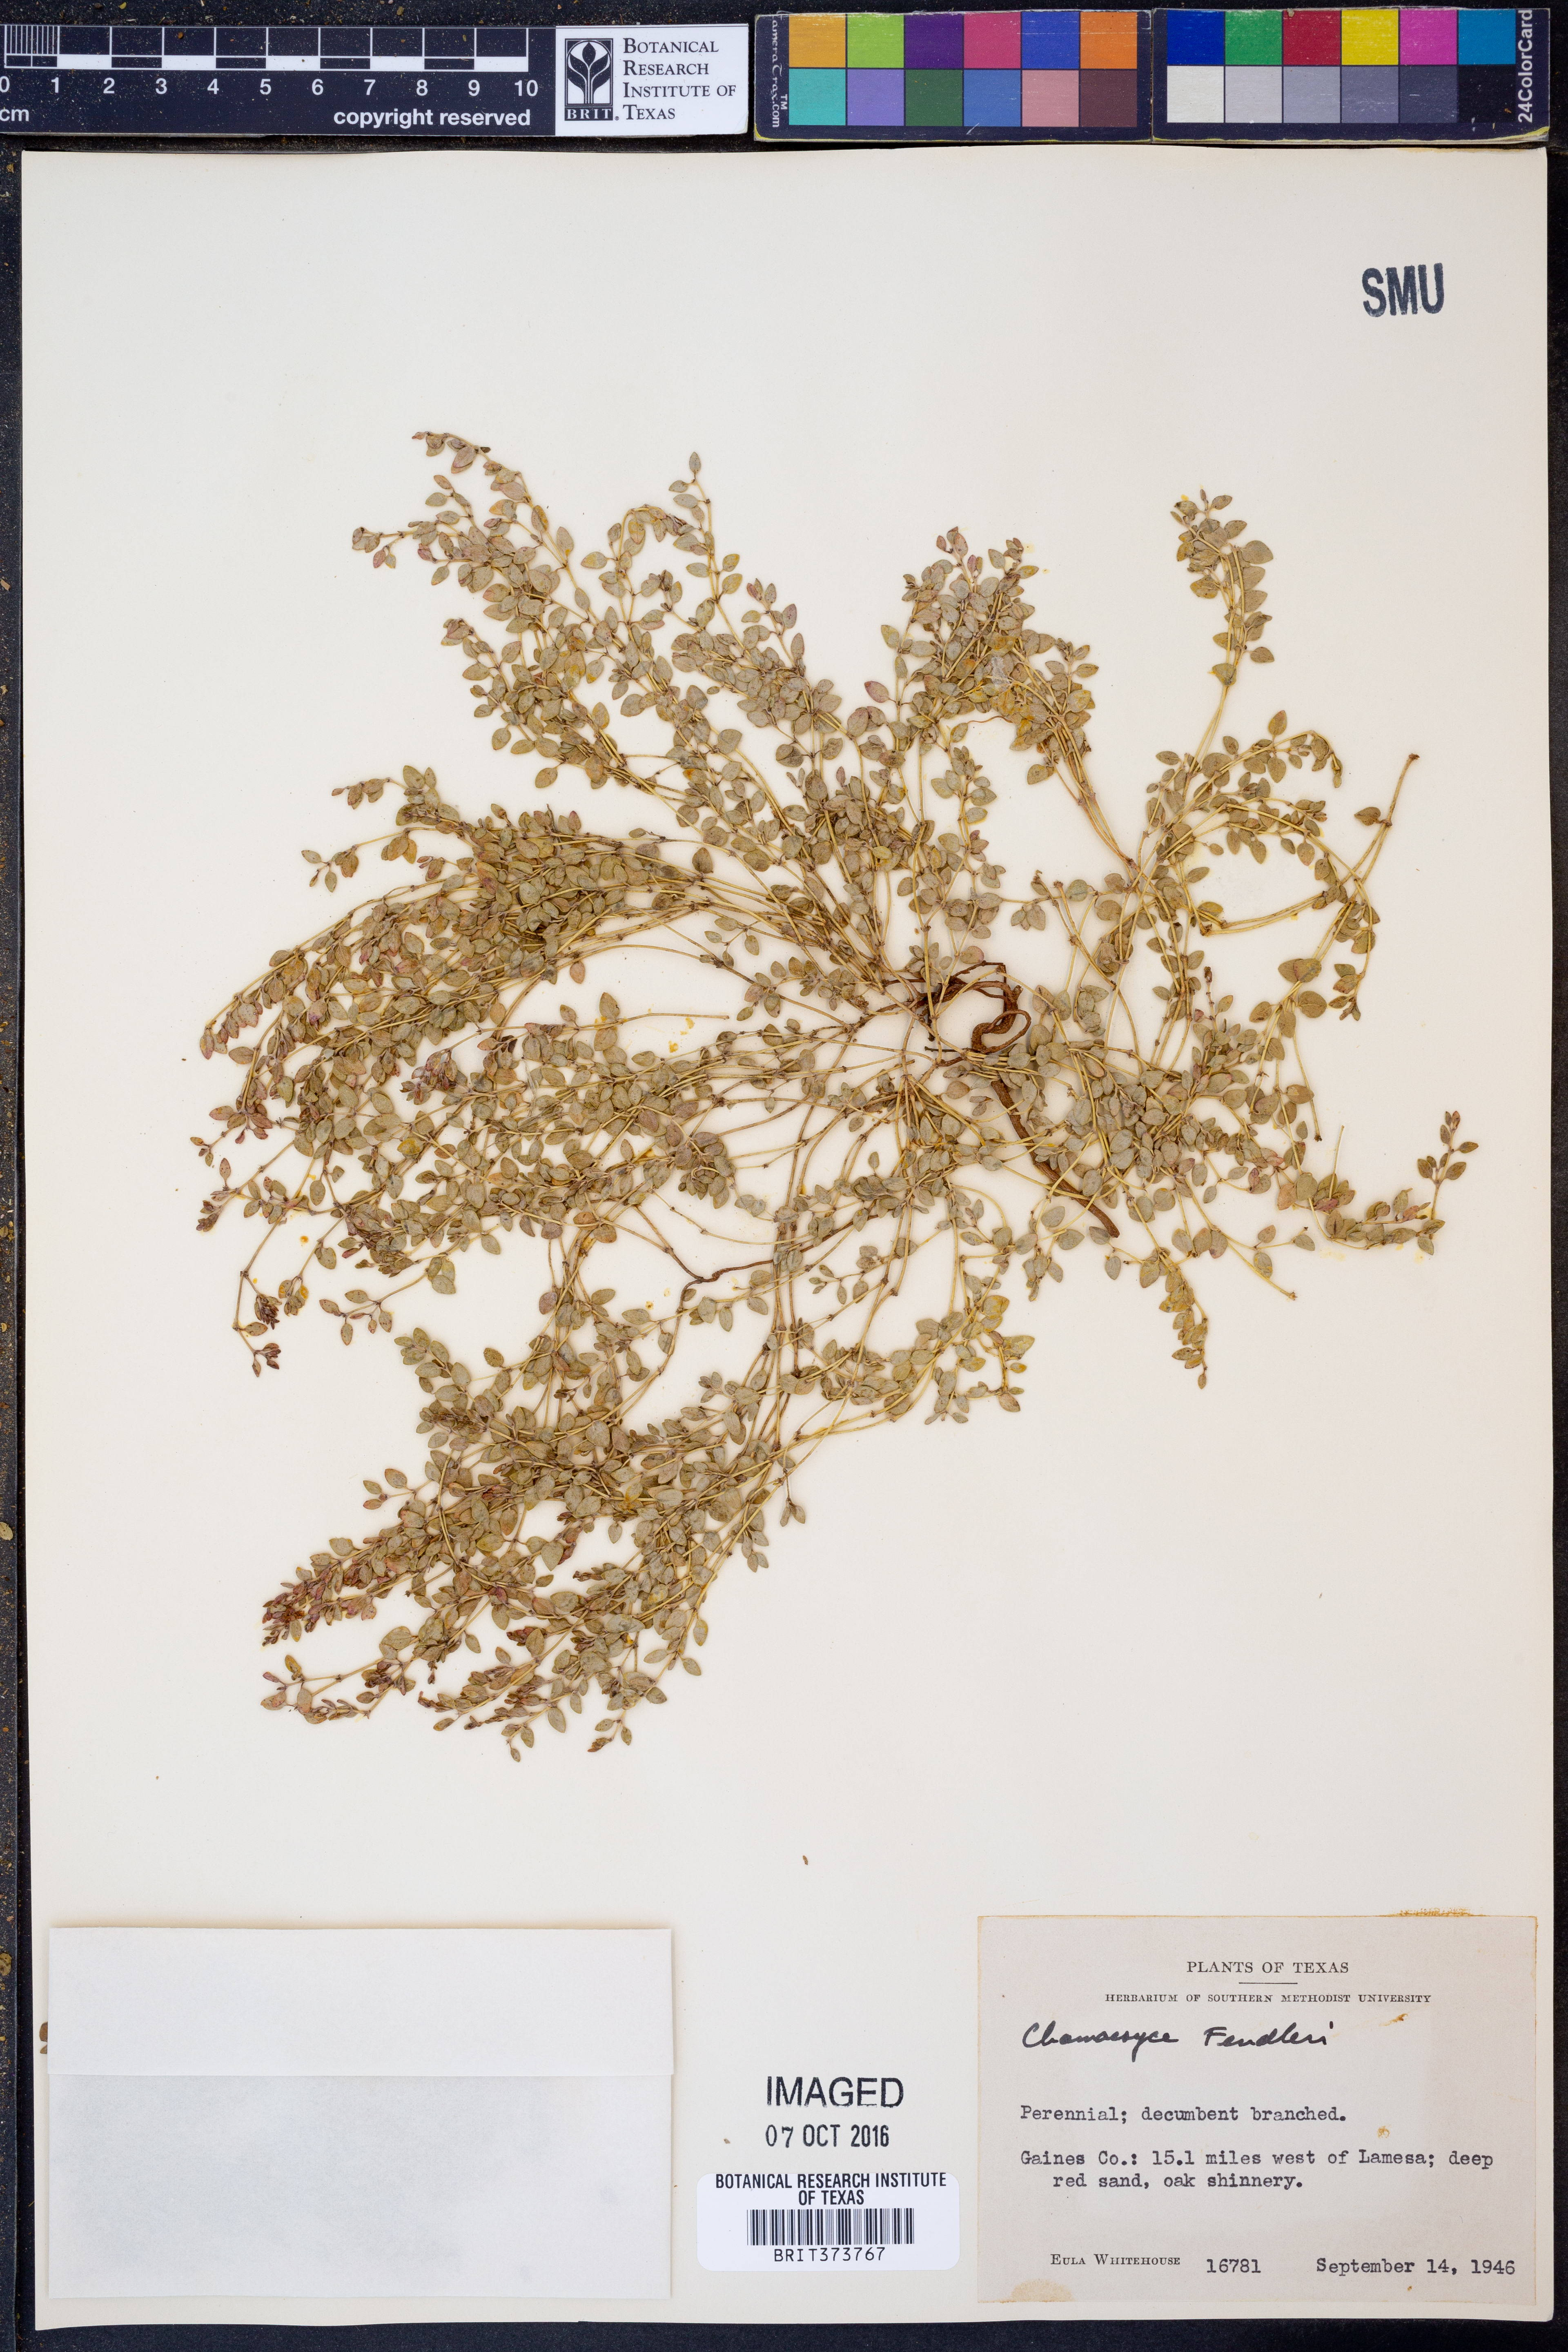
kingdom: Plantae
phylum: Tracheophyta
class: Magnoliopsida
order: Malpighiales
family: Euphorbiaceae
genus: Euphorbia
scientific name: Euphorbia fendleri
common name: Fendler's euphorbia
